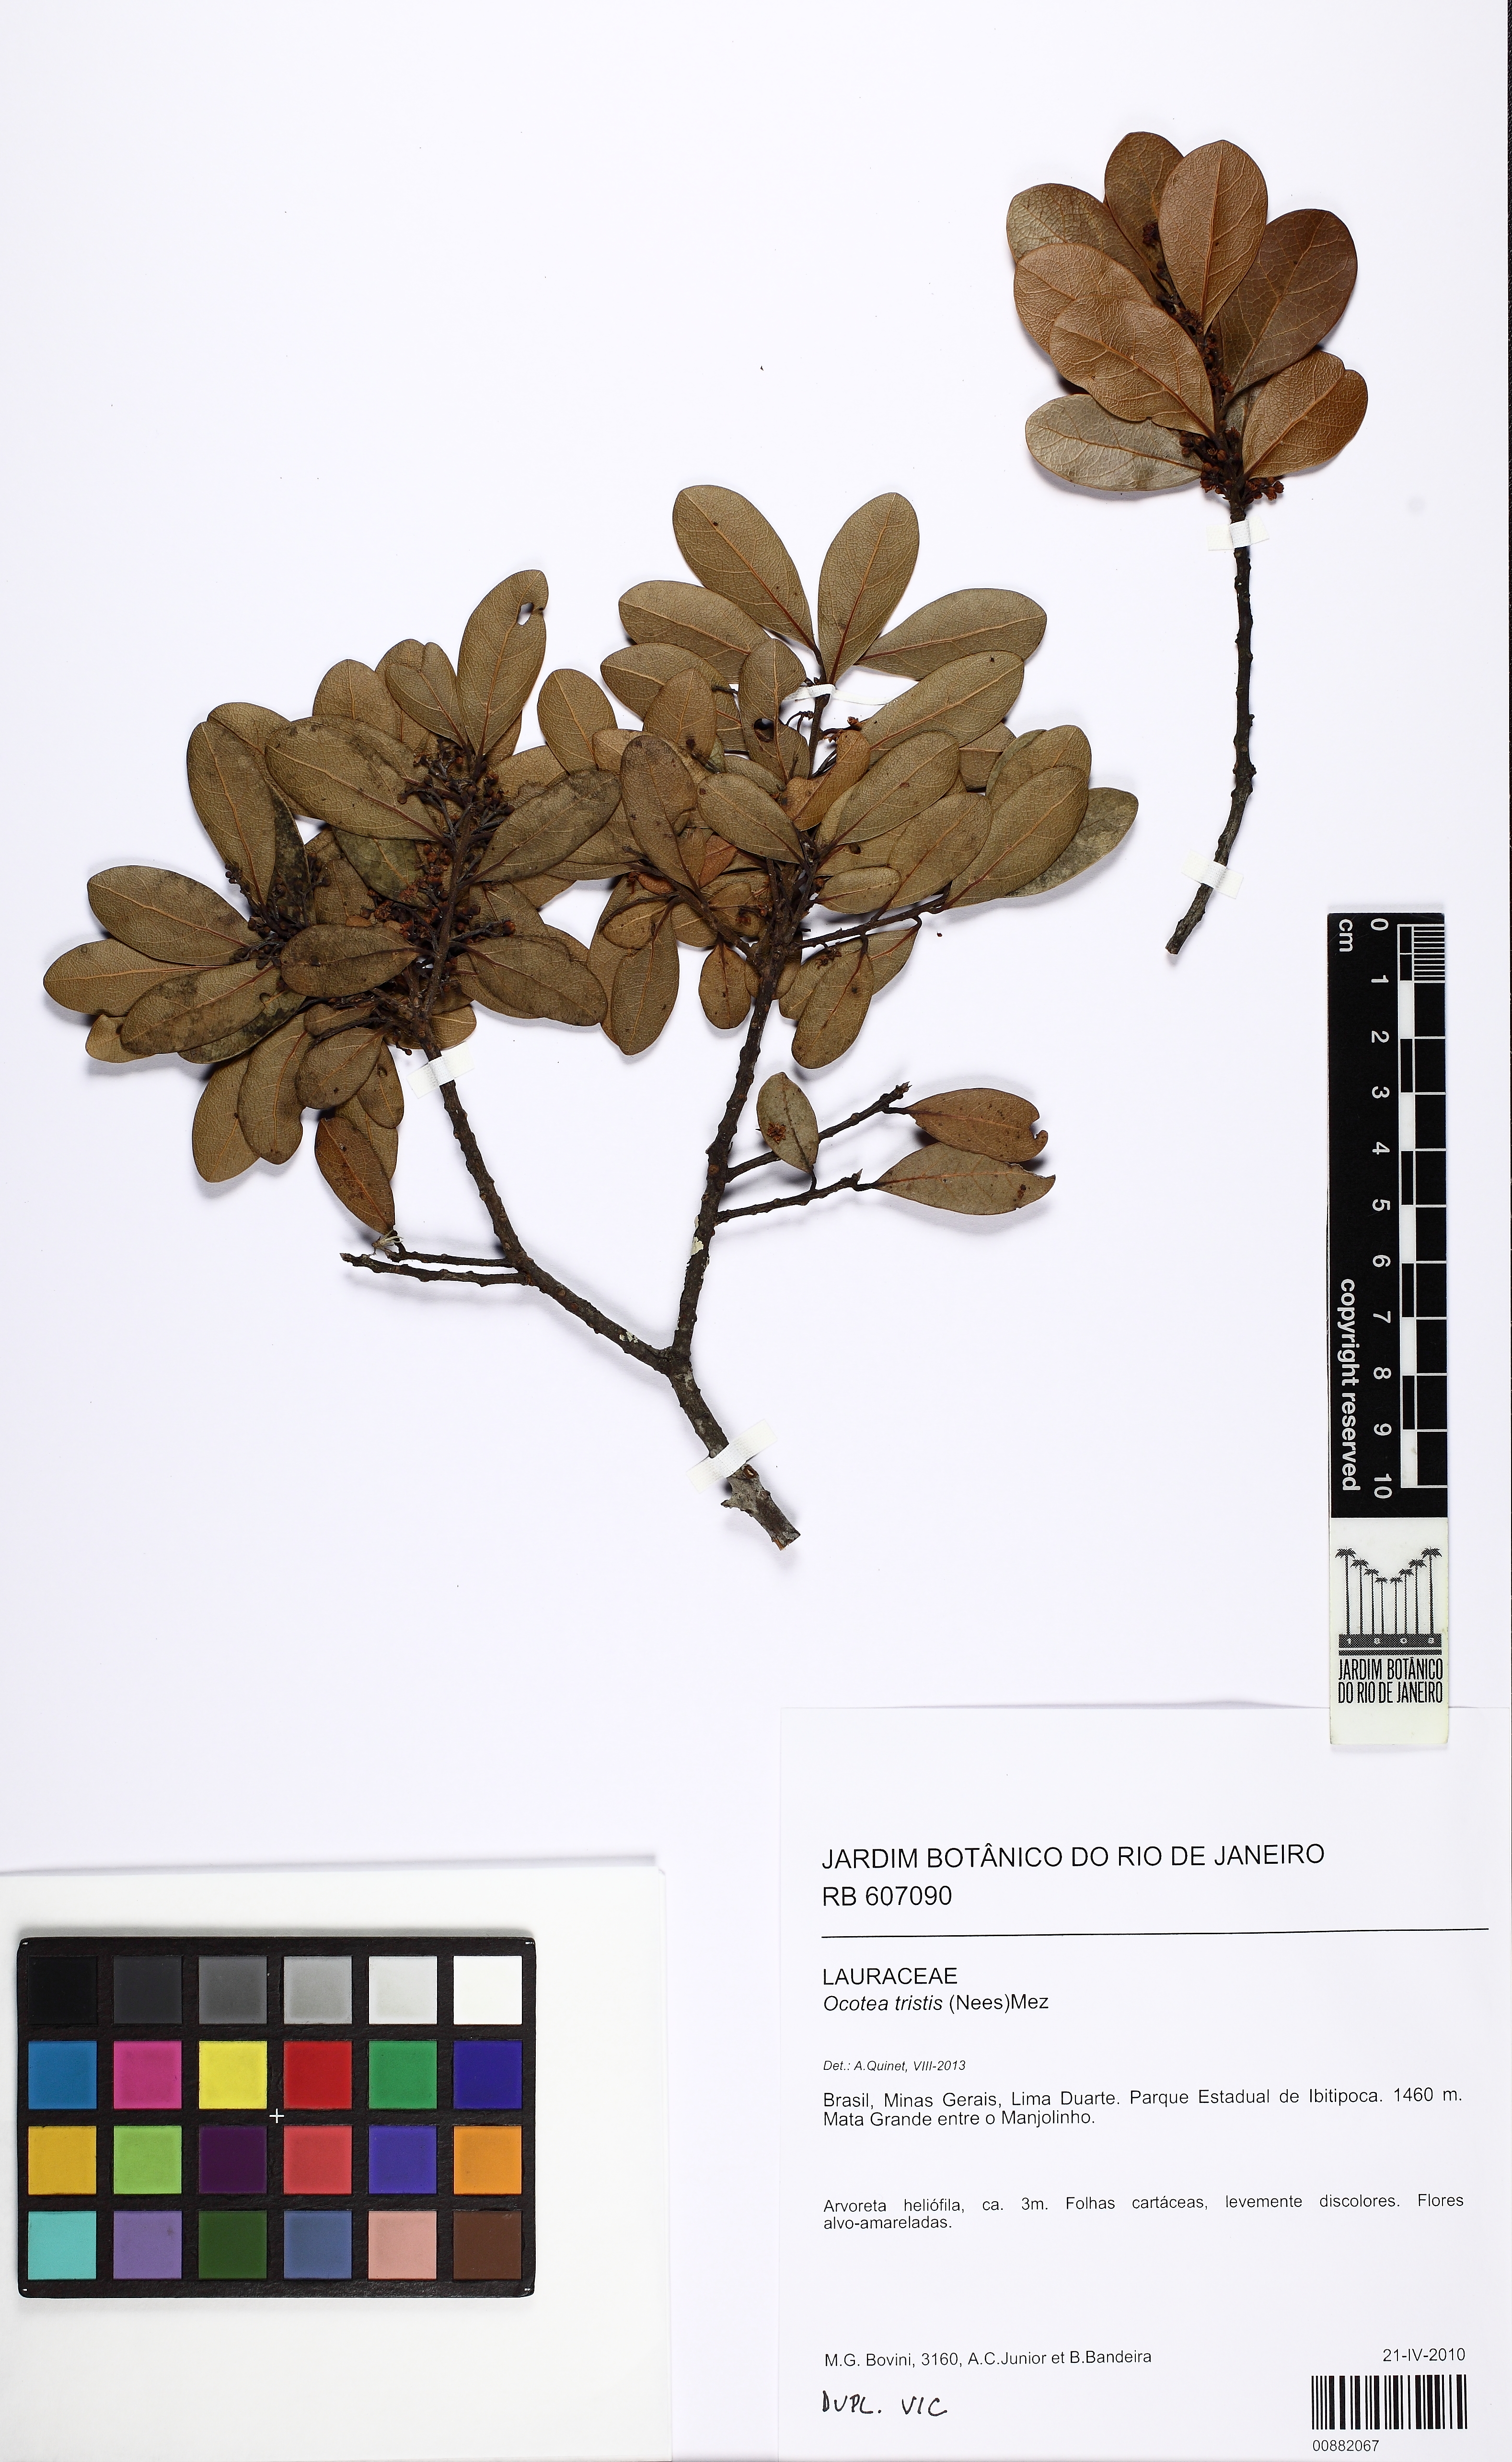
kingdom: Plantae
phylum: Tracheophyta
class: Magnoliopsida
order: Laurales
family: Lauraceae
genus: Mespilodaphne
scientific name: Mespilodaphne tristis
